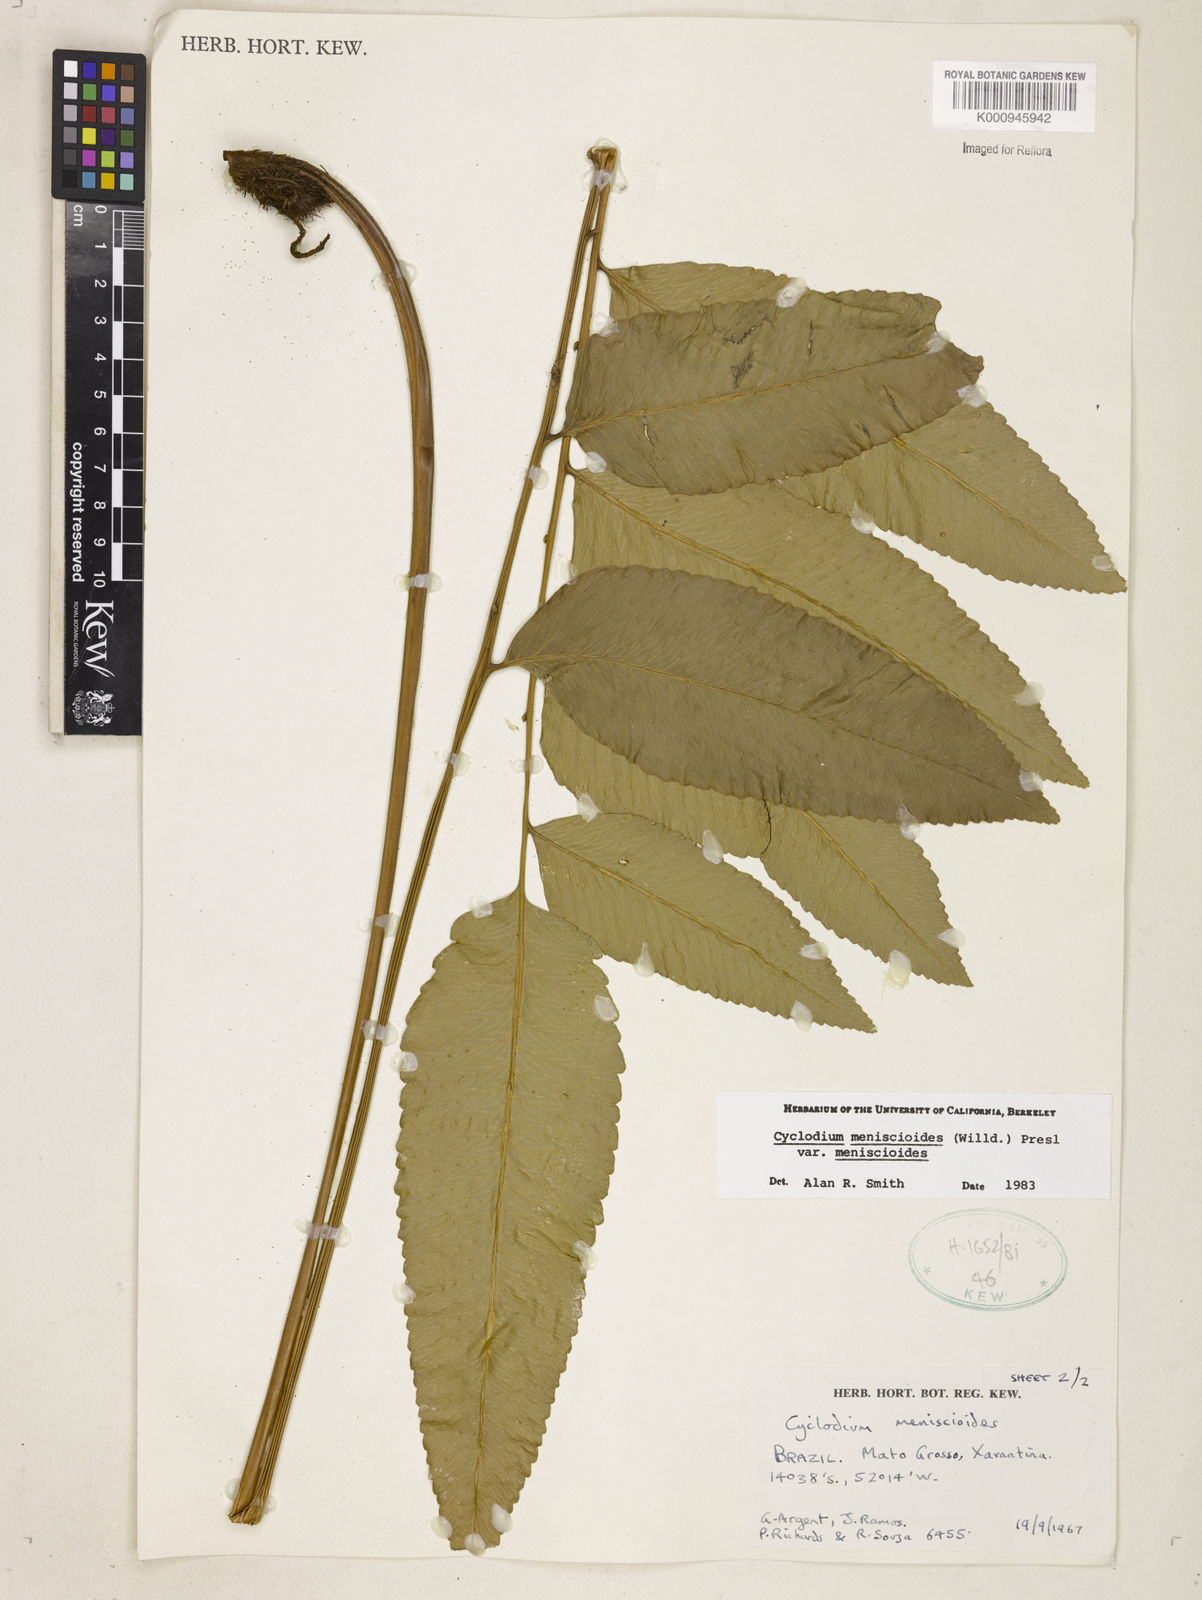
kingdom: Plantae
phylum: Tracheophyta
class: Polypodiopsida
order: Polypodiales
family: Dryopteridaceae
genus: Cyclodium
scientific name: Cyclodium meniscioides
